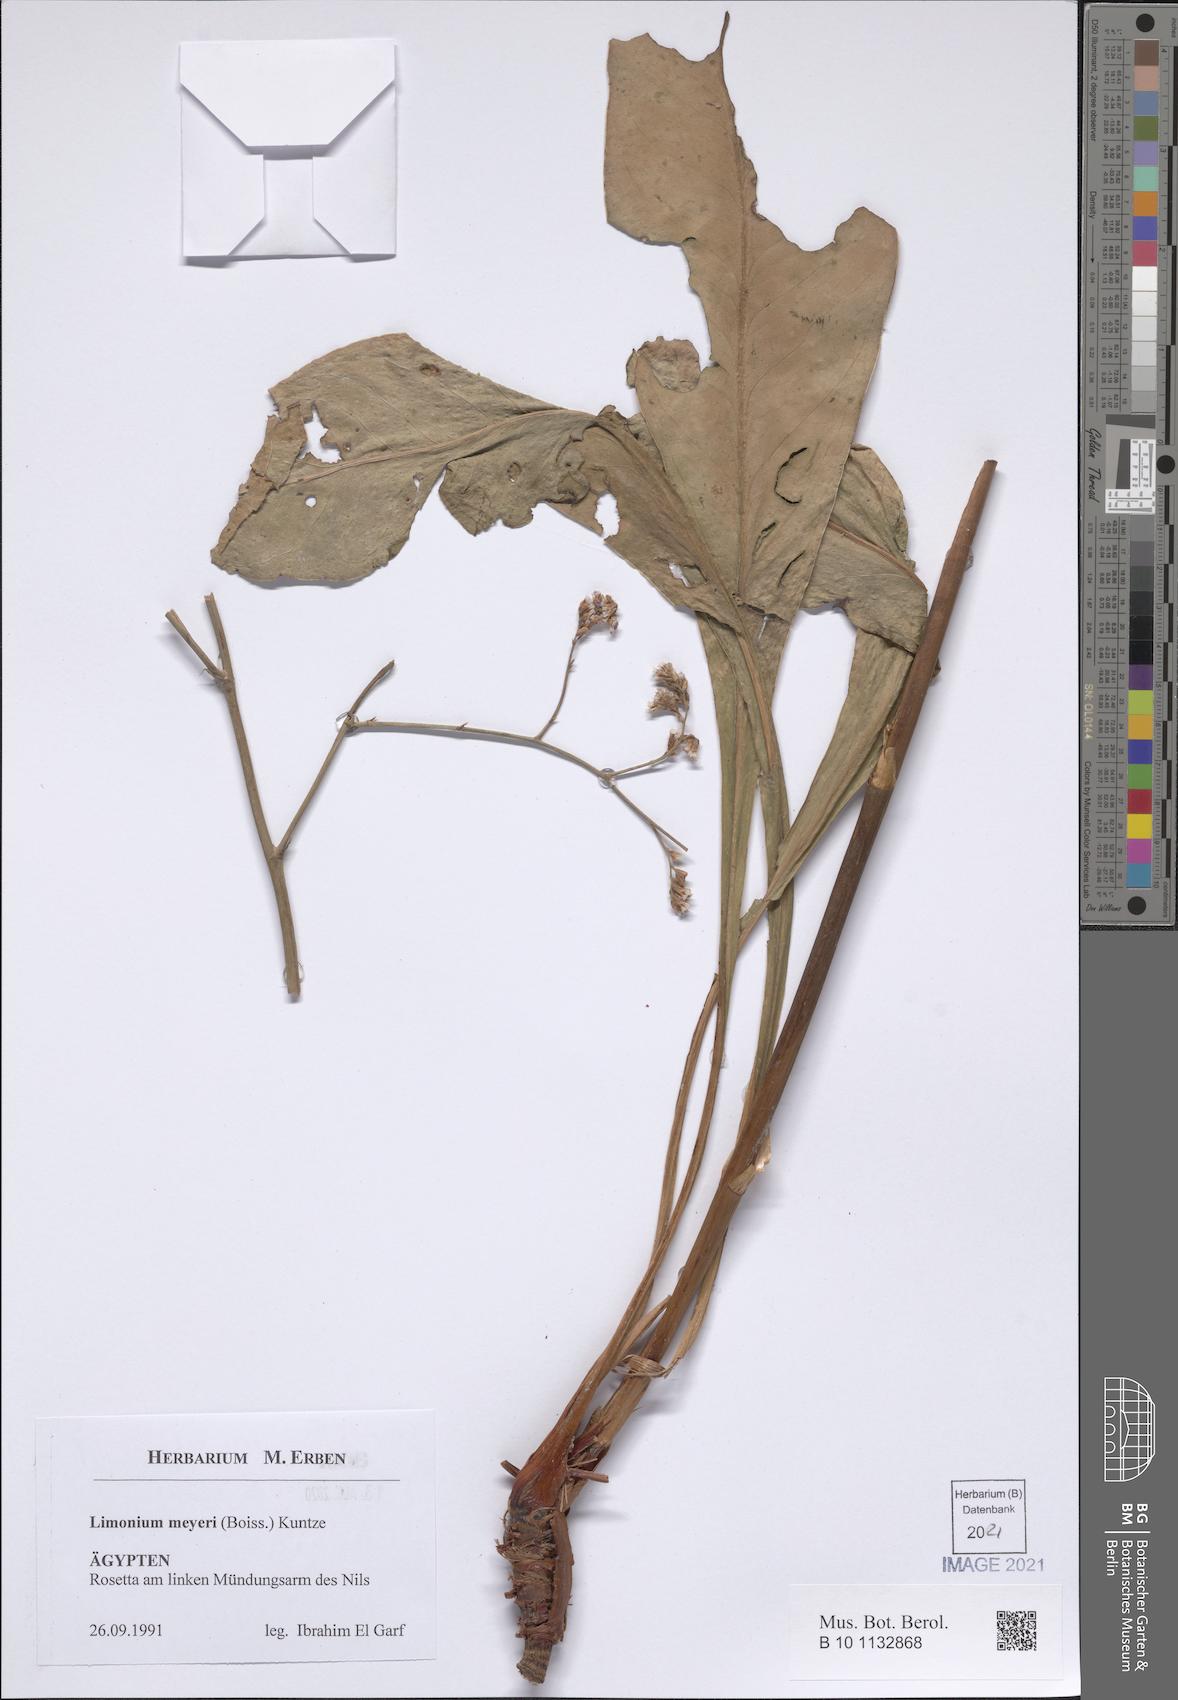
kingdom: Plantae
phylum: Tracheophyta
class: Magnoliopsida
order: Caryophyllales
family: Plumbaginaceae
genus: Limonium
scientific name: Limonium scoparium
